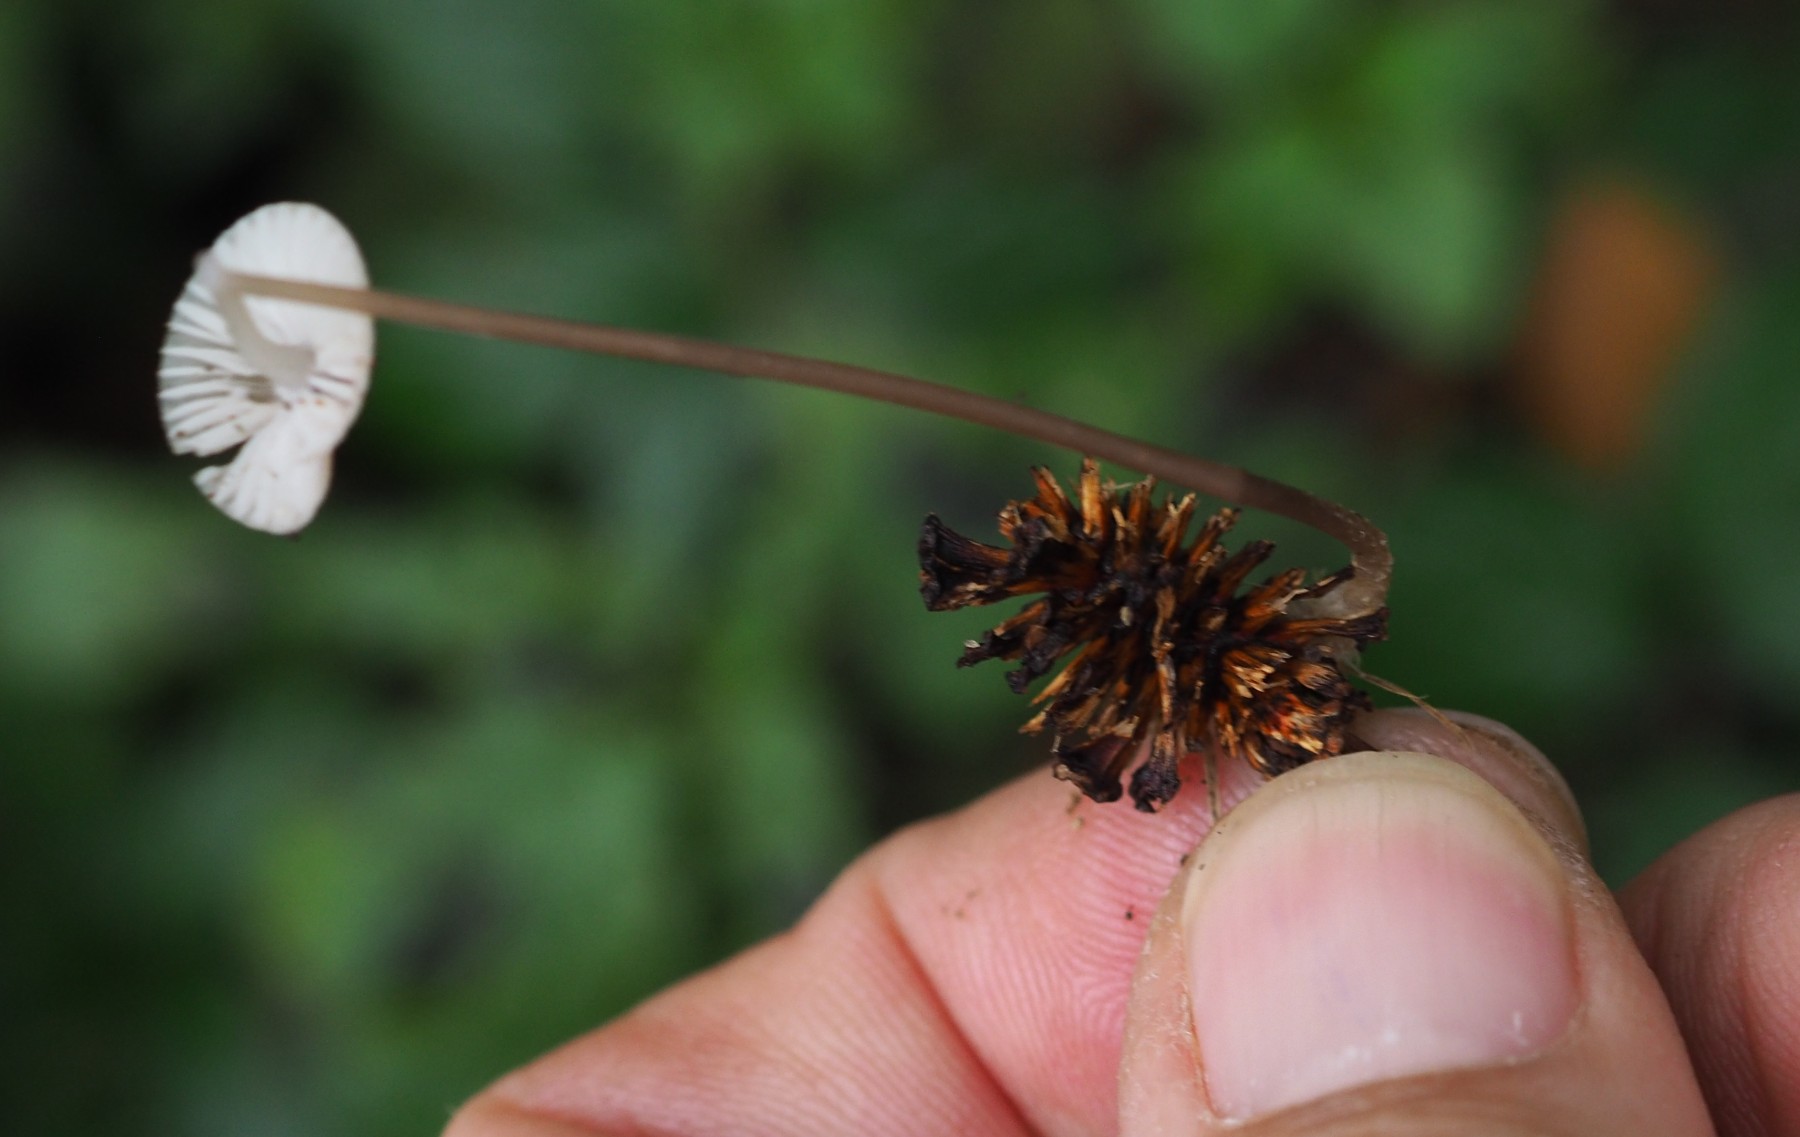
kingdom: Fungi
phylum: Basidiomycota
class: Agaricomycetes
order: Agaricales
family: Mycenaceae
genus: Mycena
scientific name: Mycena arcangeliana
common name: oliven-huesvamp
